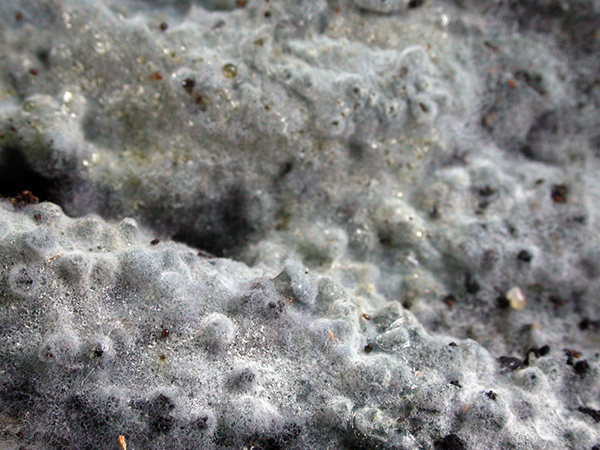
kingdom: Fungi
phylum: Basidiomycota
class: Agaricomycetes
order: Atheliales
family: Atheliaceae
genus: Byssocorticium
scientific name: Byssocorticium atrovirens
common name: blå førnehinde
